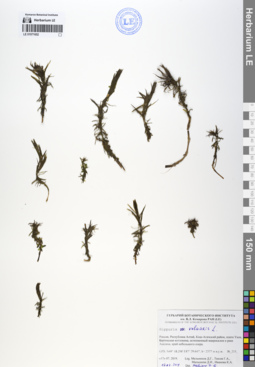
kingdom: Plantae
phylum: Tracheophyta
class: Magnoliopsida
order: Lamiales
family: Plantaginaceae
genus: Hippuris
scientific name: Hippuris vulgaris
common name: Mare's-tail
